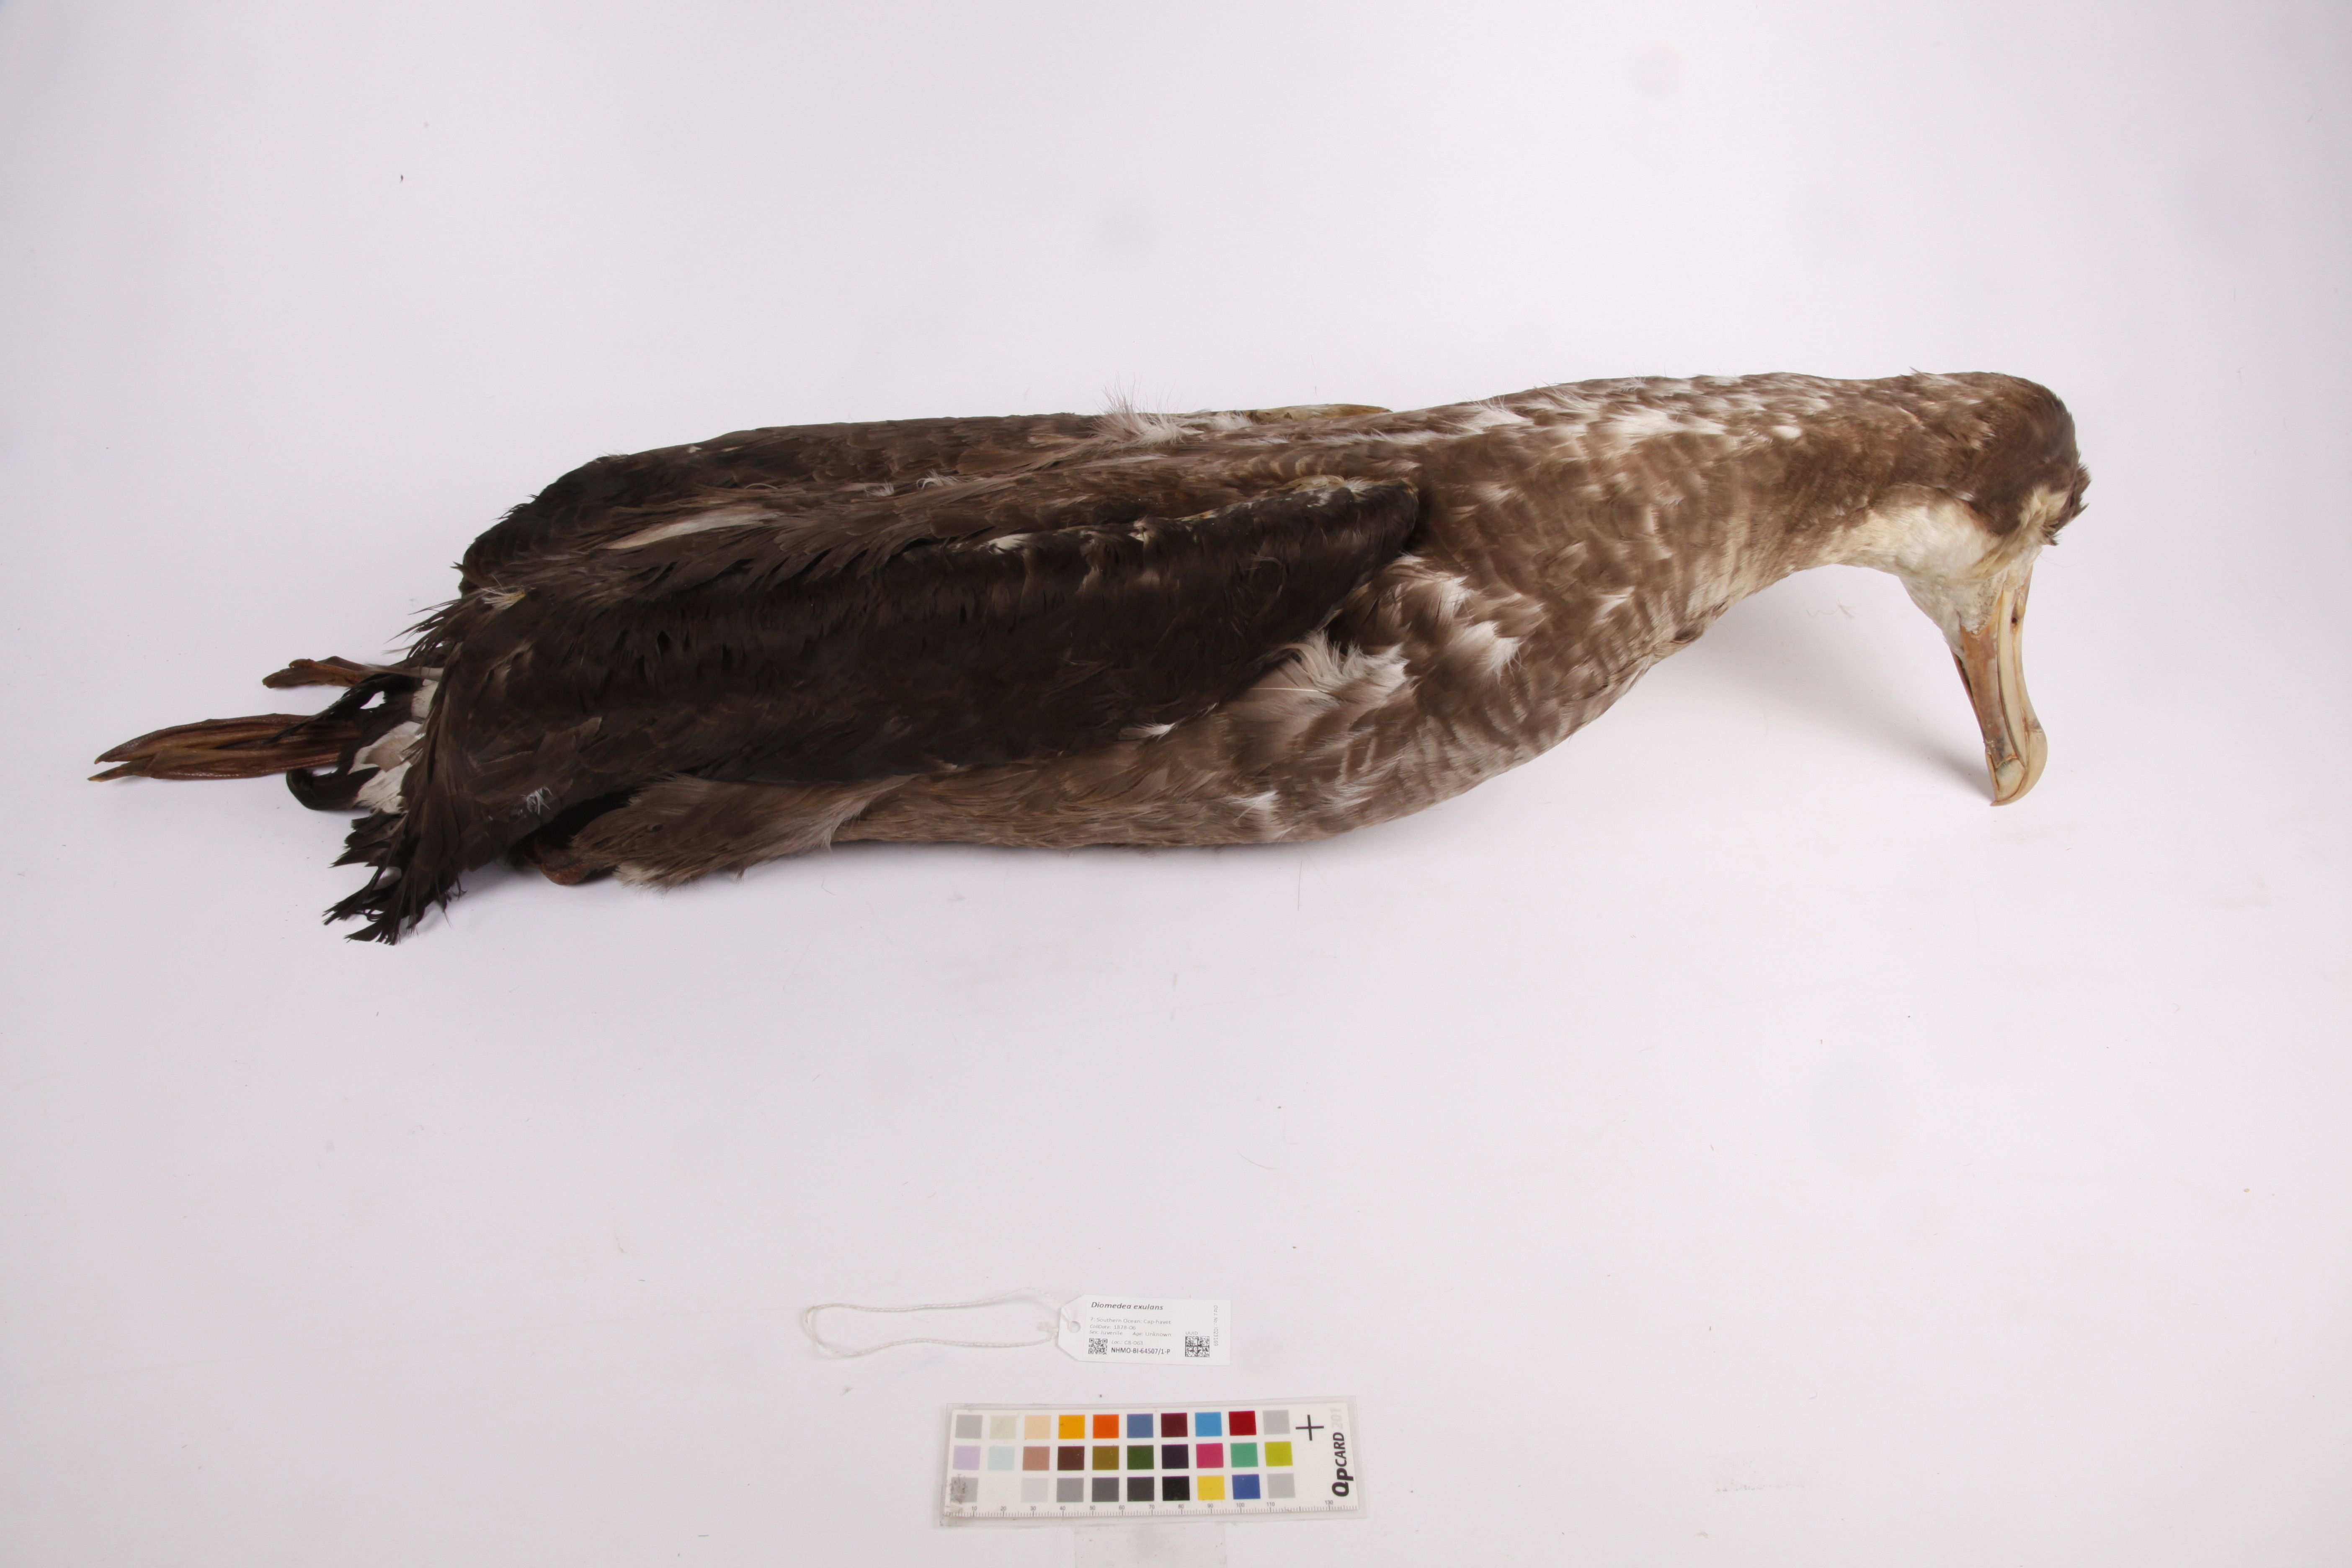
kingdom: Animalia
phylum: Chordata
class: Aves
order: Procellariiformes
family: Diomedeidae
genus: Diomedea
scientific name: Diomedea exulans
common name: Wandering albatross
